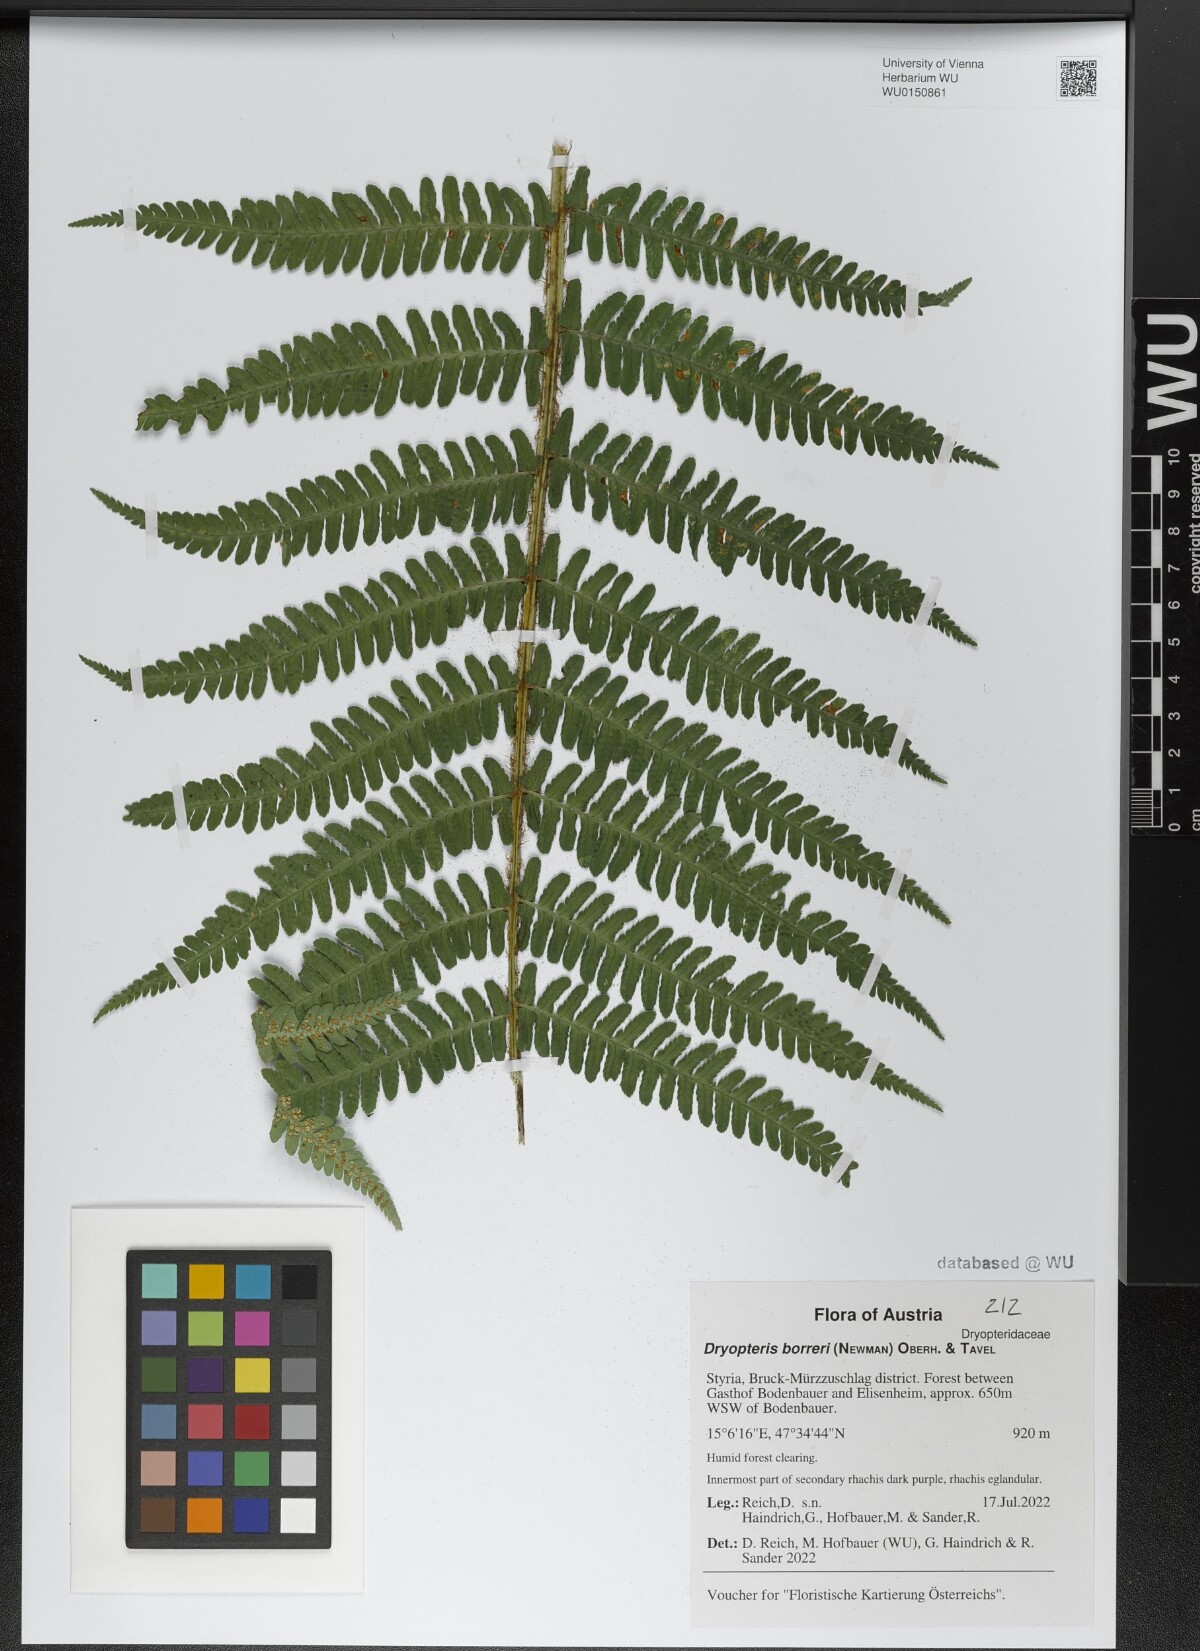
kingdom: Plantae
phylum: Tracheophyta
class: Polypodiopsida
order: Polypodiales
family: Dryopteridaceae
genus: Dryopteris
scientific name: Dryopteris borreri
